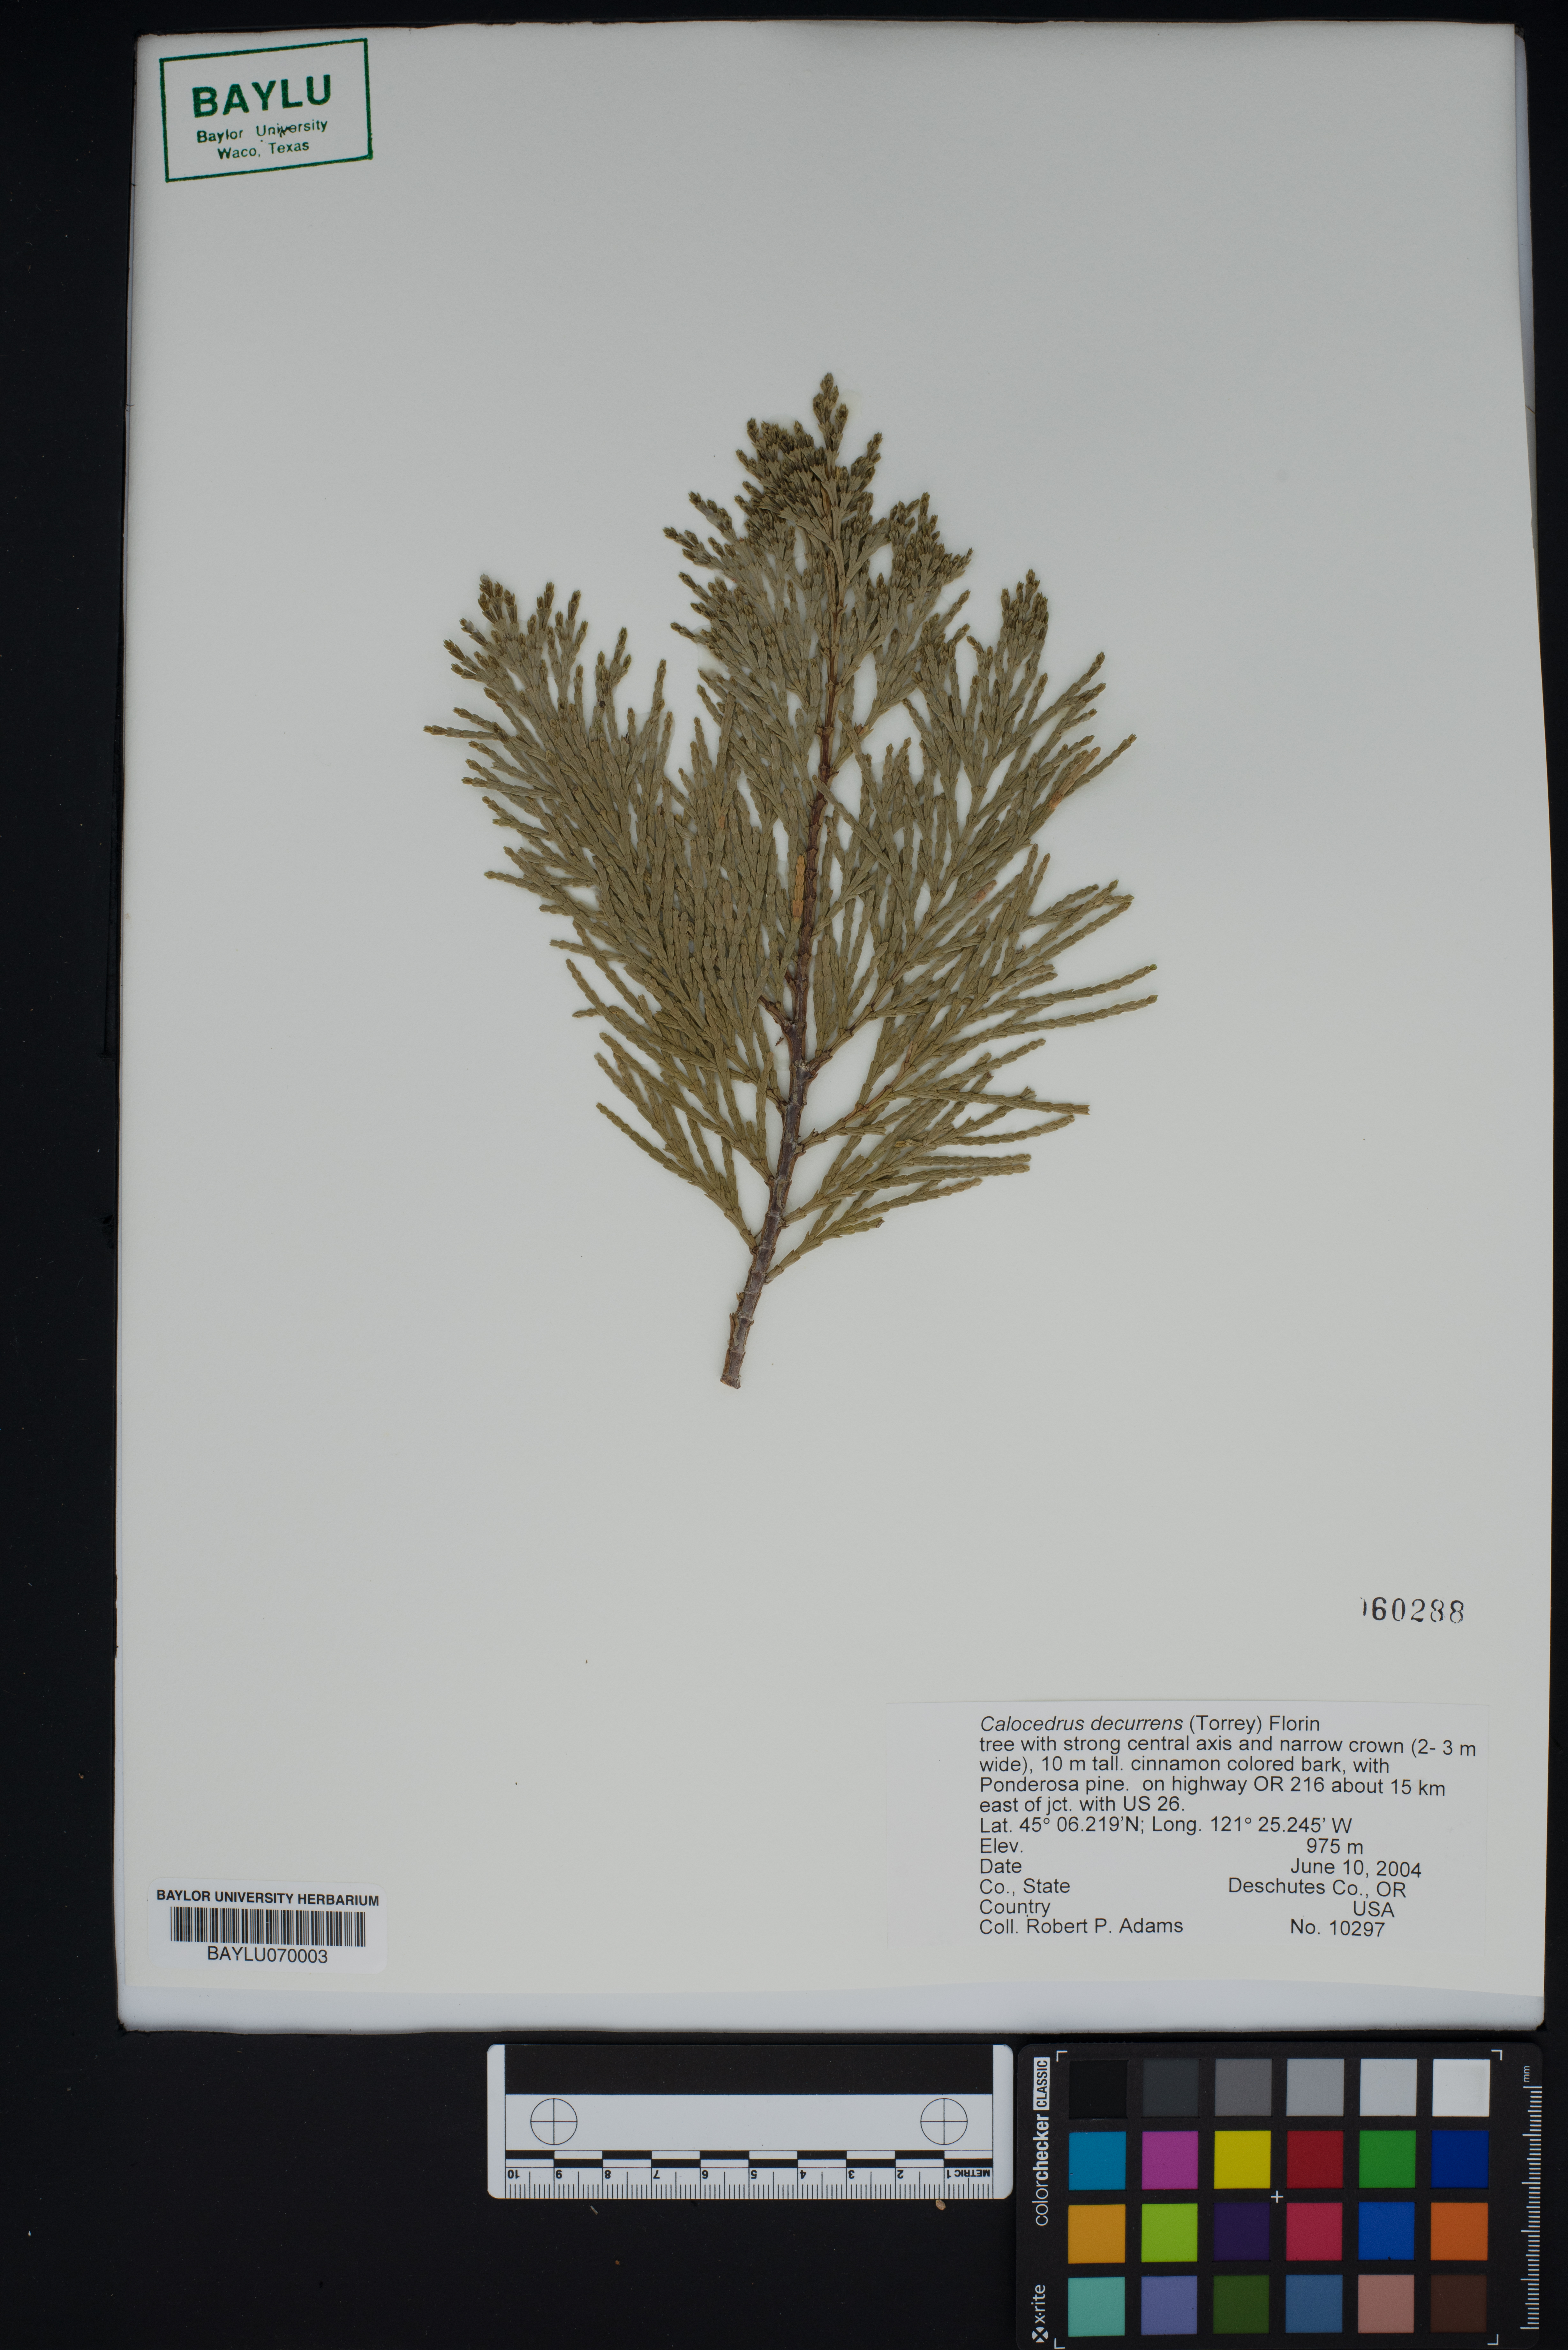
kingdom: Plantae
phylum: Tracheophyta
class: Pinopsida
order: Pinales
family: Cupressaceae
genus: Calocedrus
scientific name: Calocedrus decurrens
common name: Californian incense-cedar
